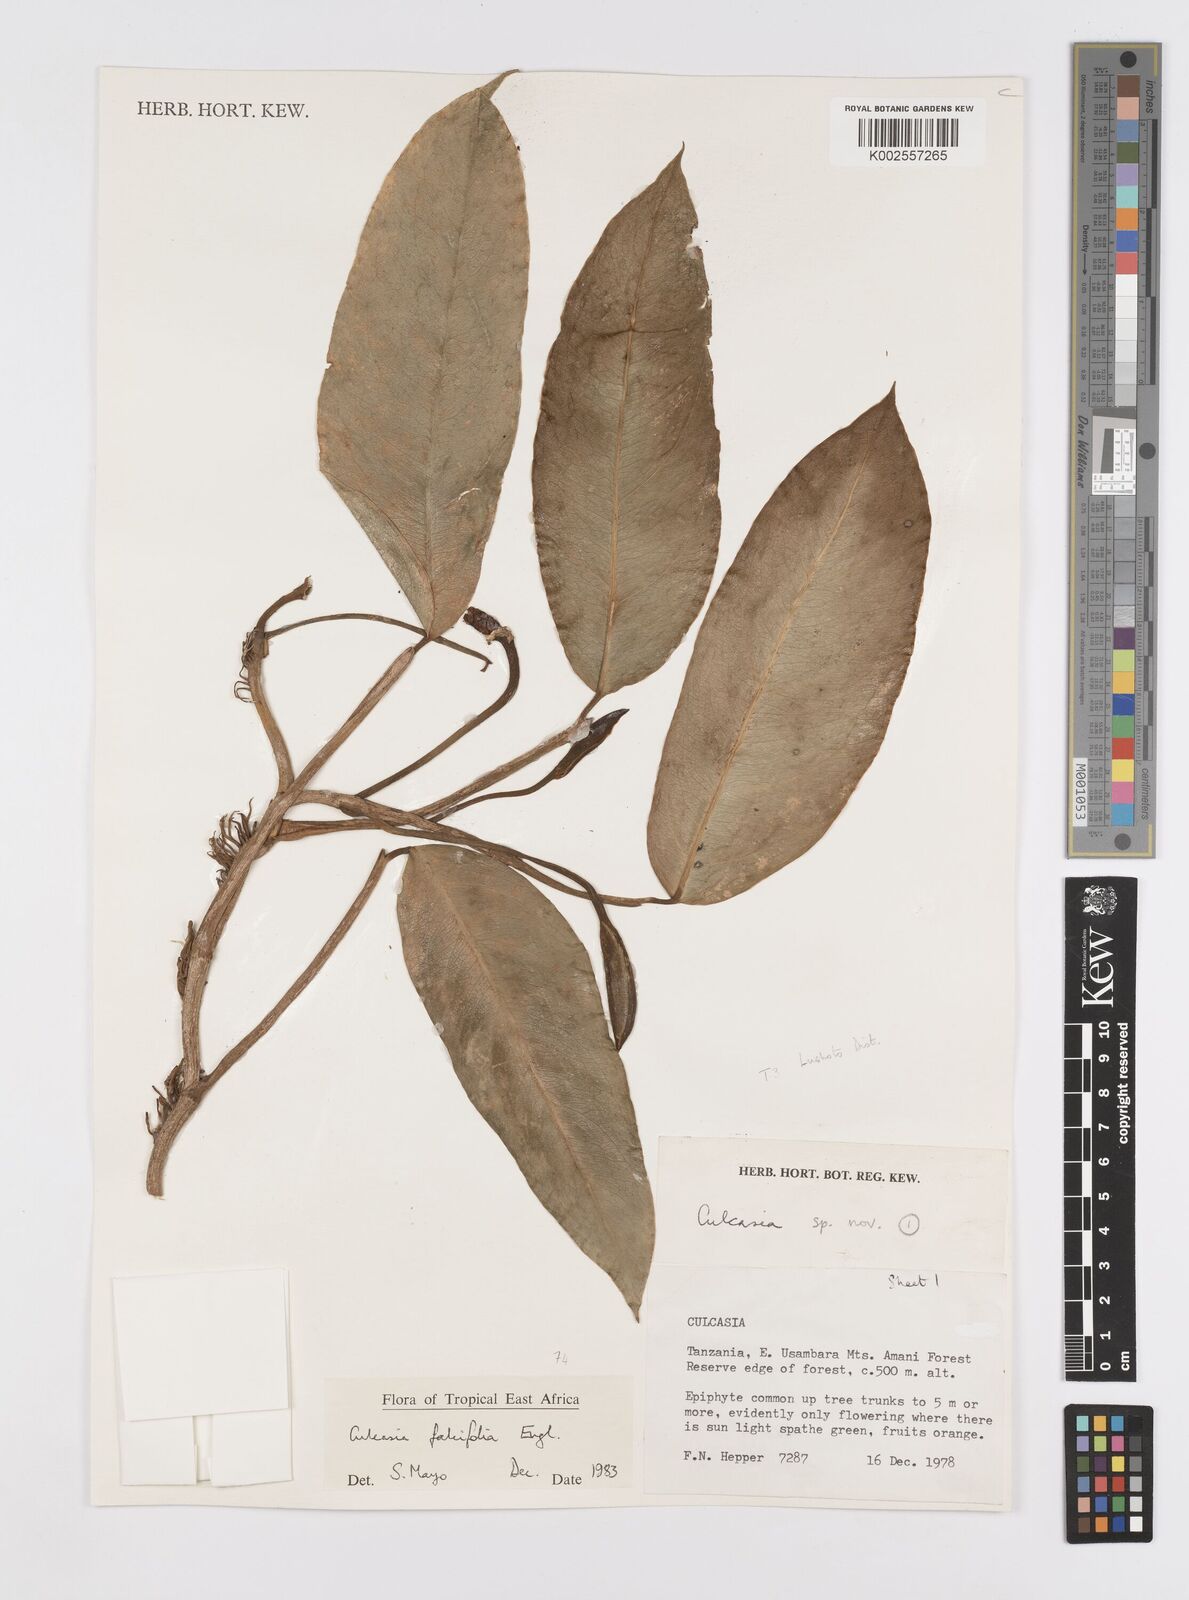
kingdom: Plantae
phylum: Tracheophyta
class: Liliopsida
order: Alismatales
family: Araceae
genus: Culcasia
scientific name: Culcasia falcifolia
